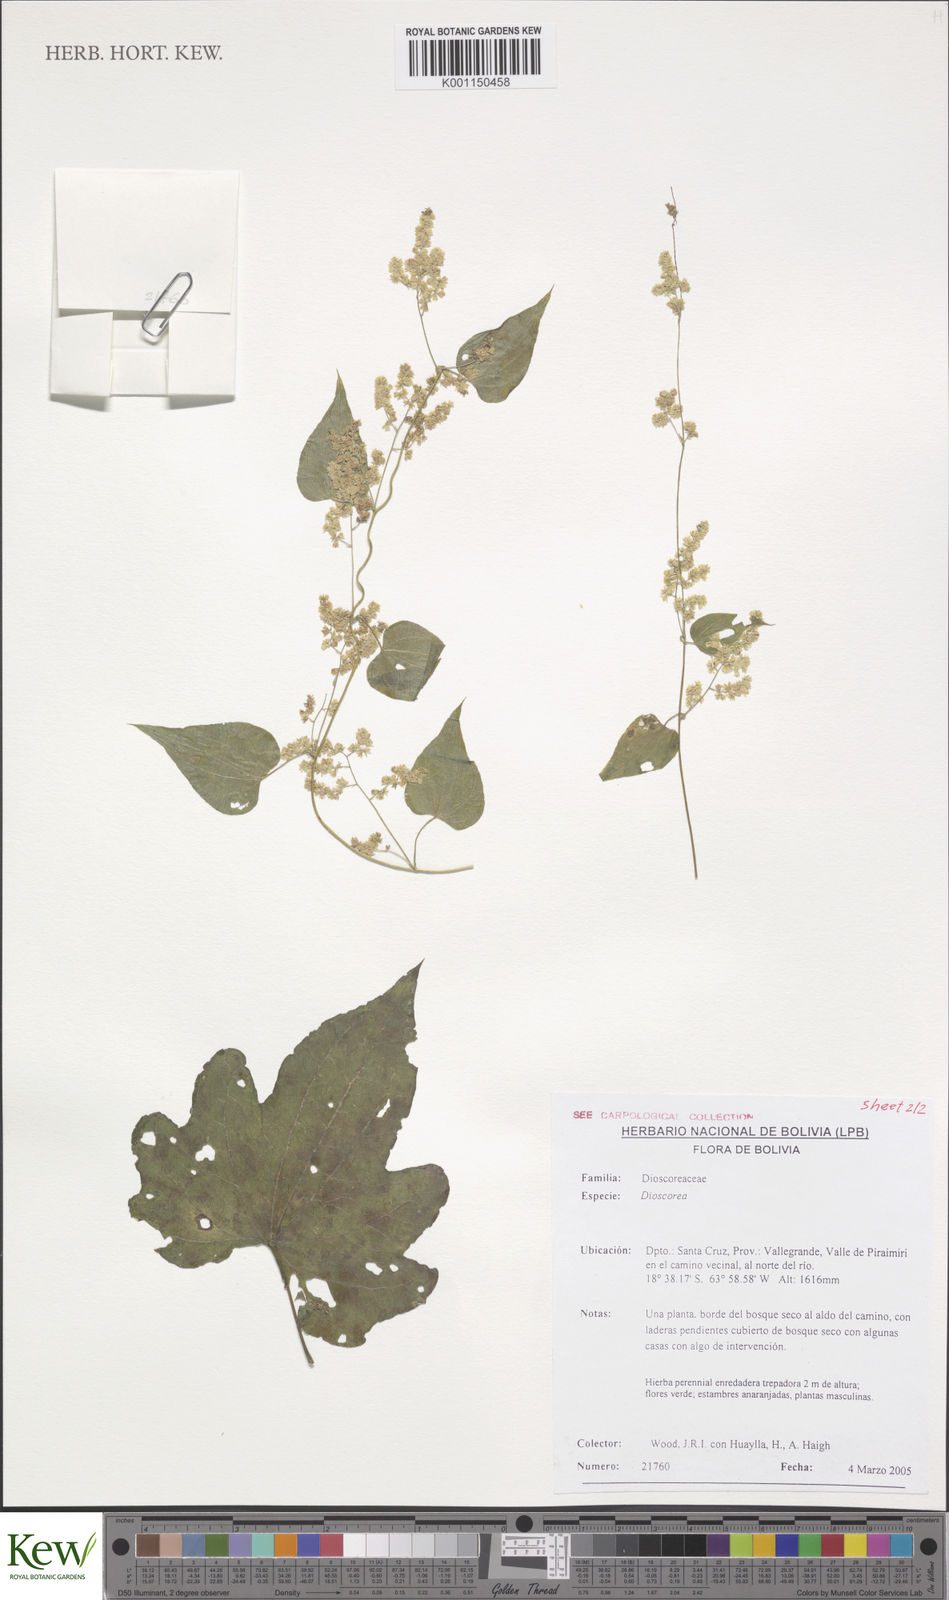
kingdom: Plantae
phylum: Tracheophyta
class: Liliopsida
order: Dioscoreales
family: Dioscoreaceae
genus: Dioscorea
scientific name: Dioscorea sinuata
